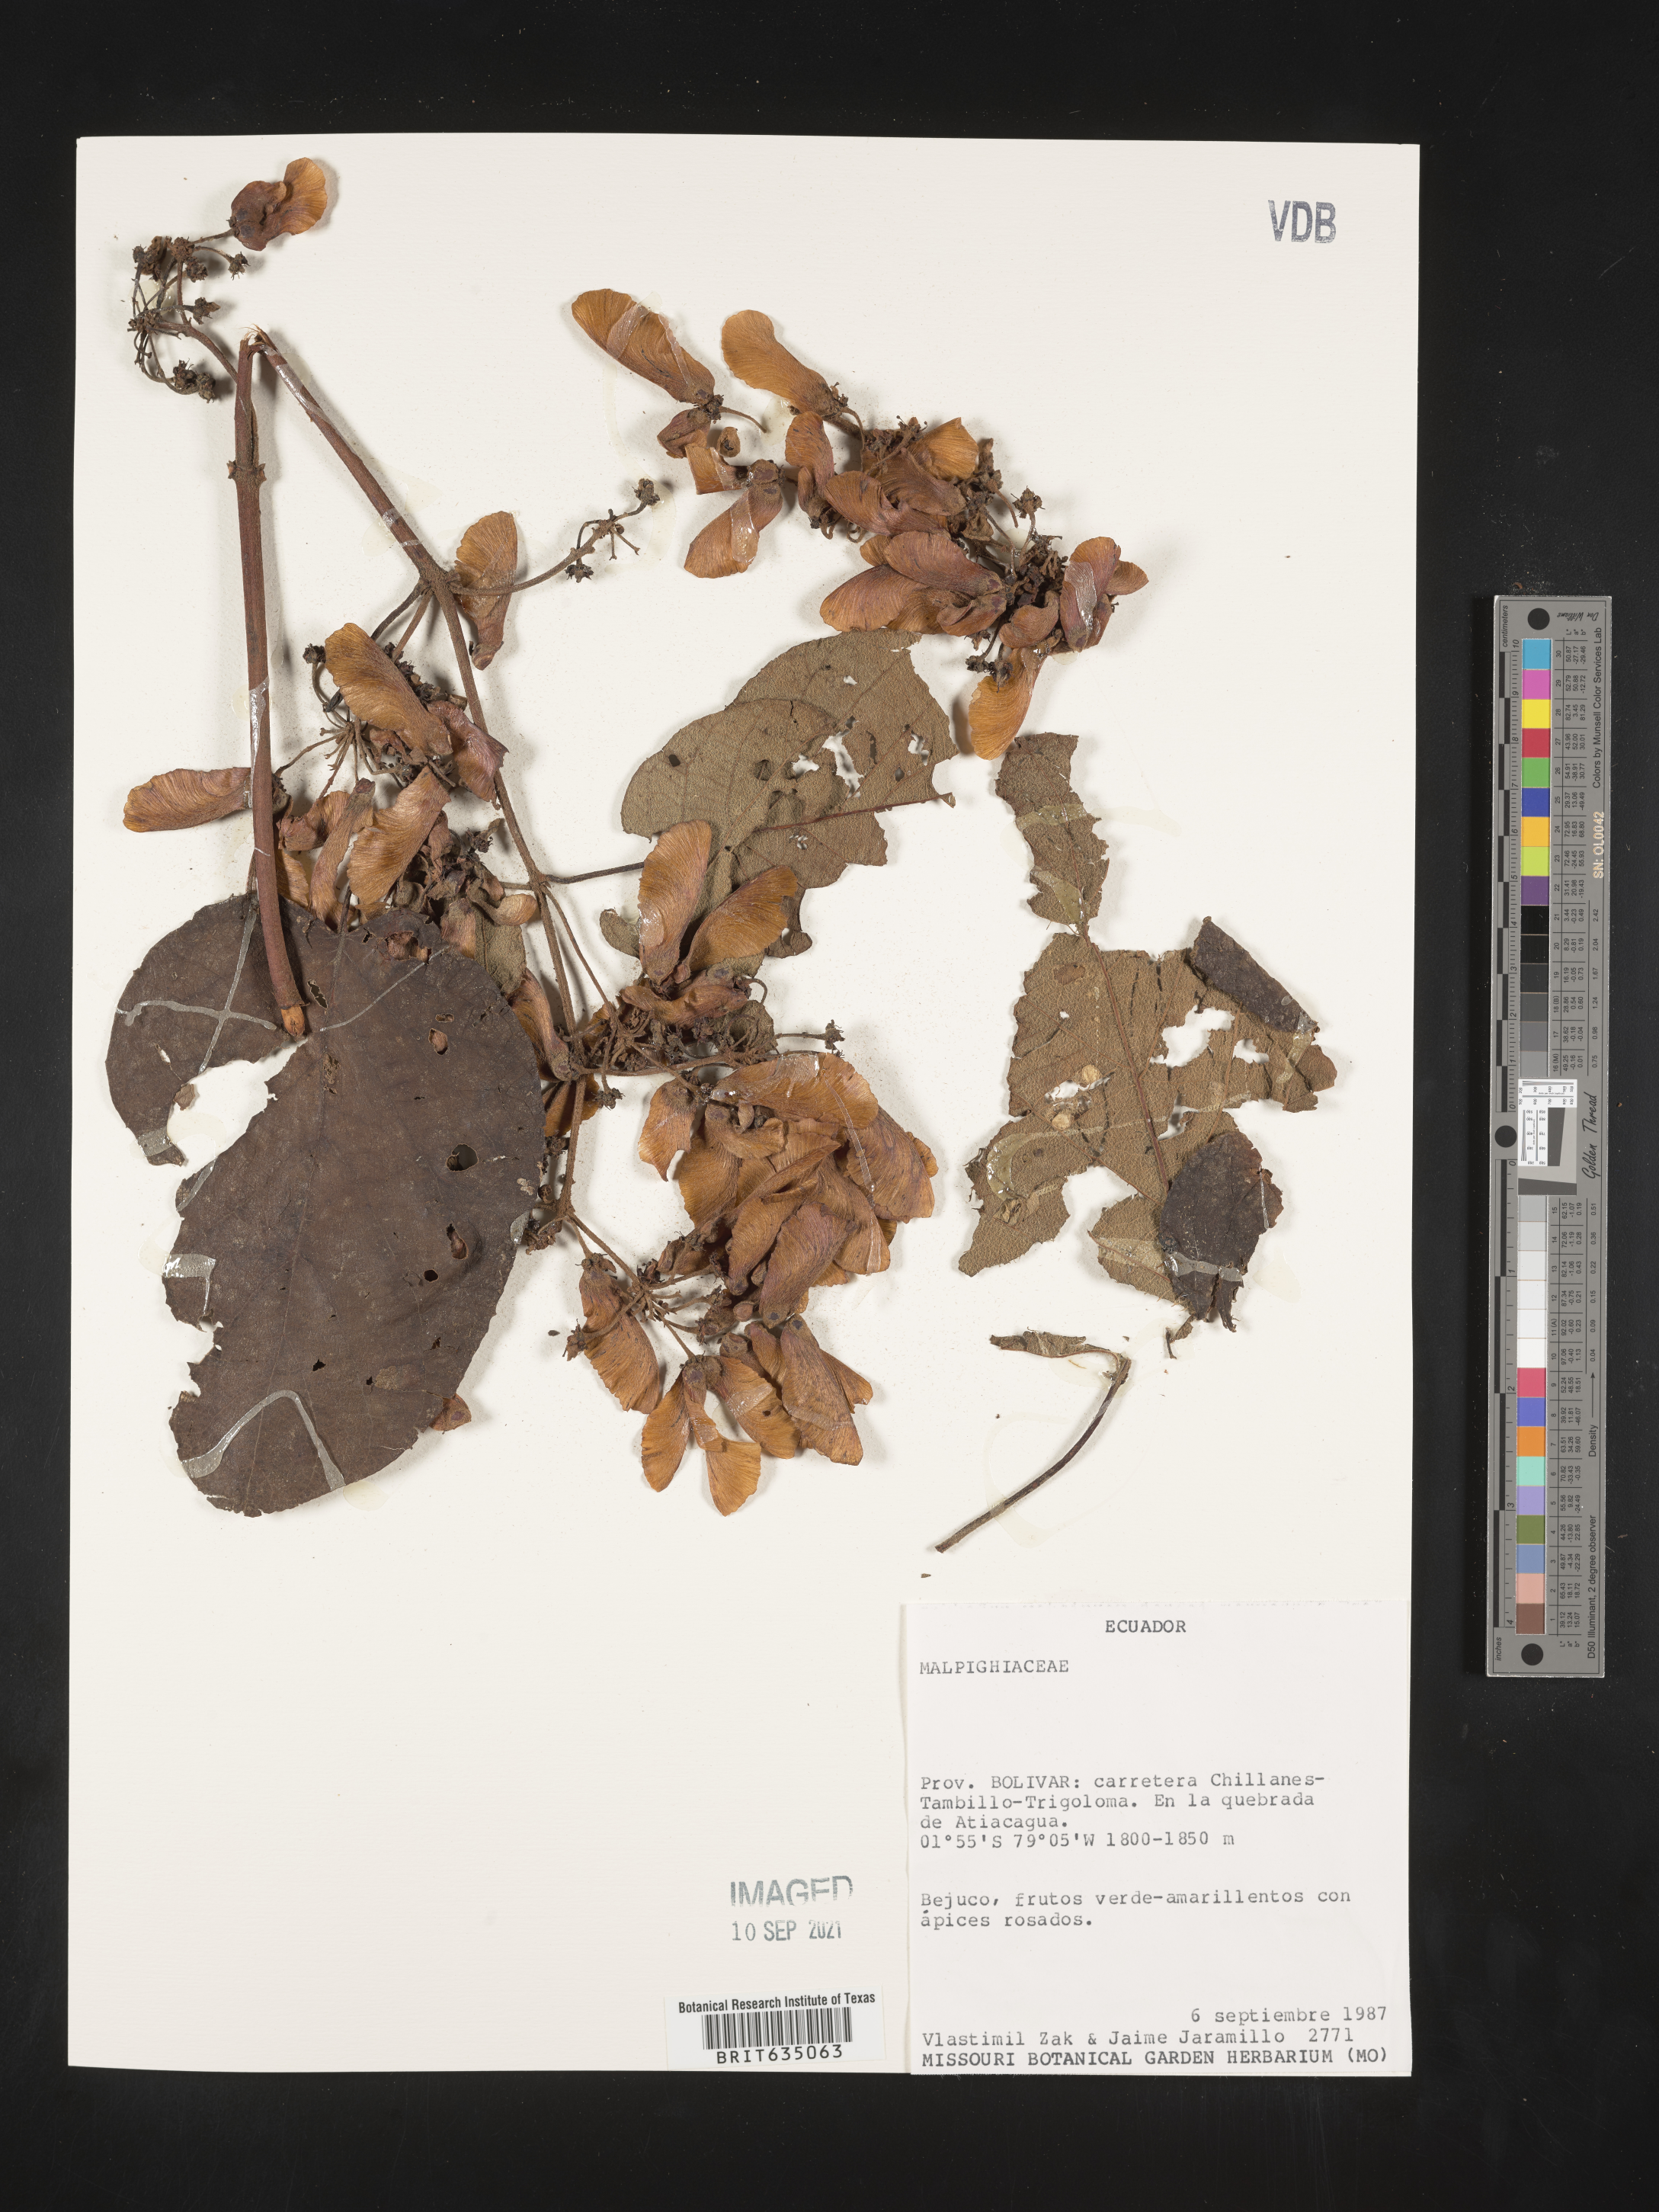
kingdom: Plantae
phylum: Tracheophyta
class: Magnoliopsida
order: Malpighiales
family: Malpighiaceae
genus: Stigmaphyllon
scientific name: Stigmaphyllon
